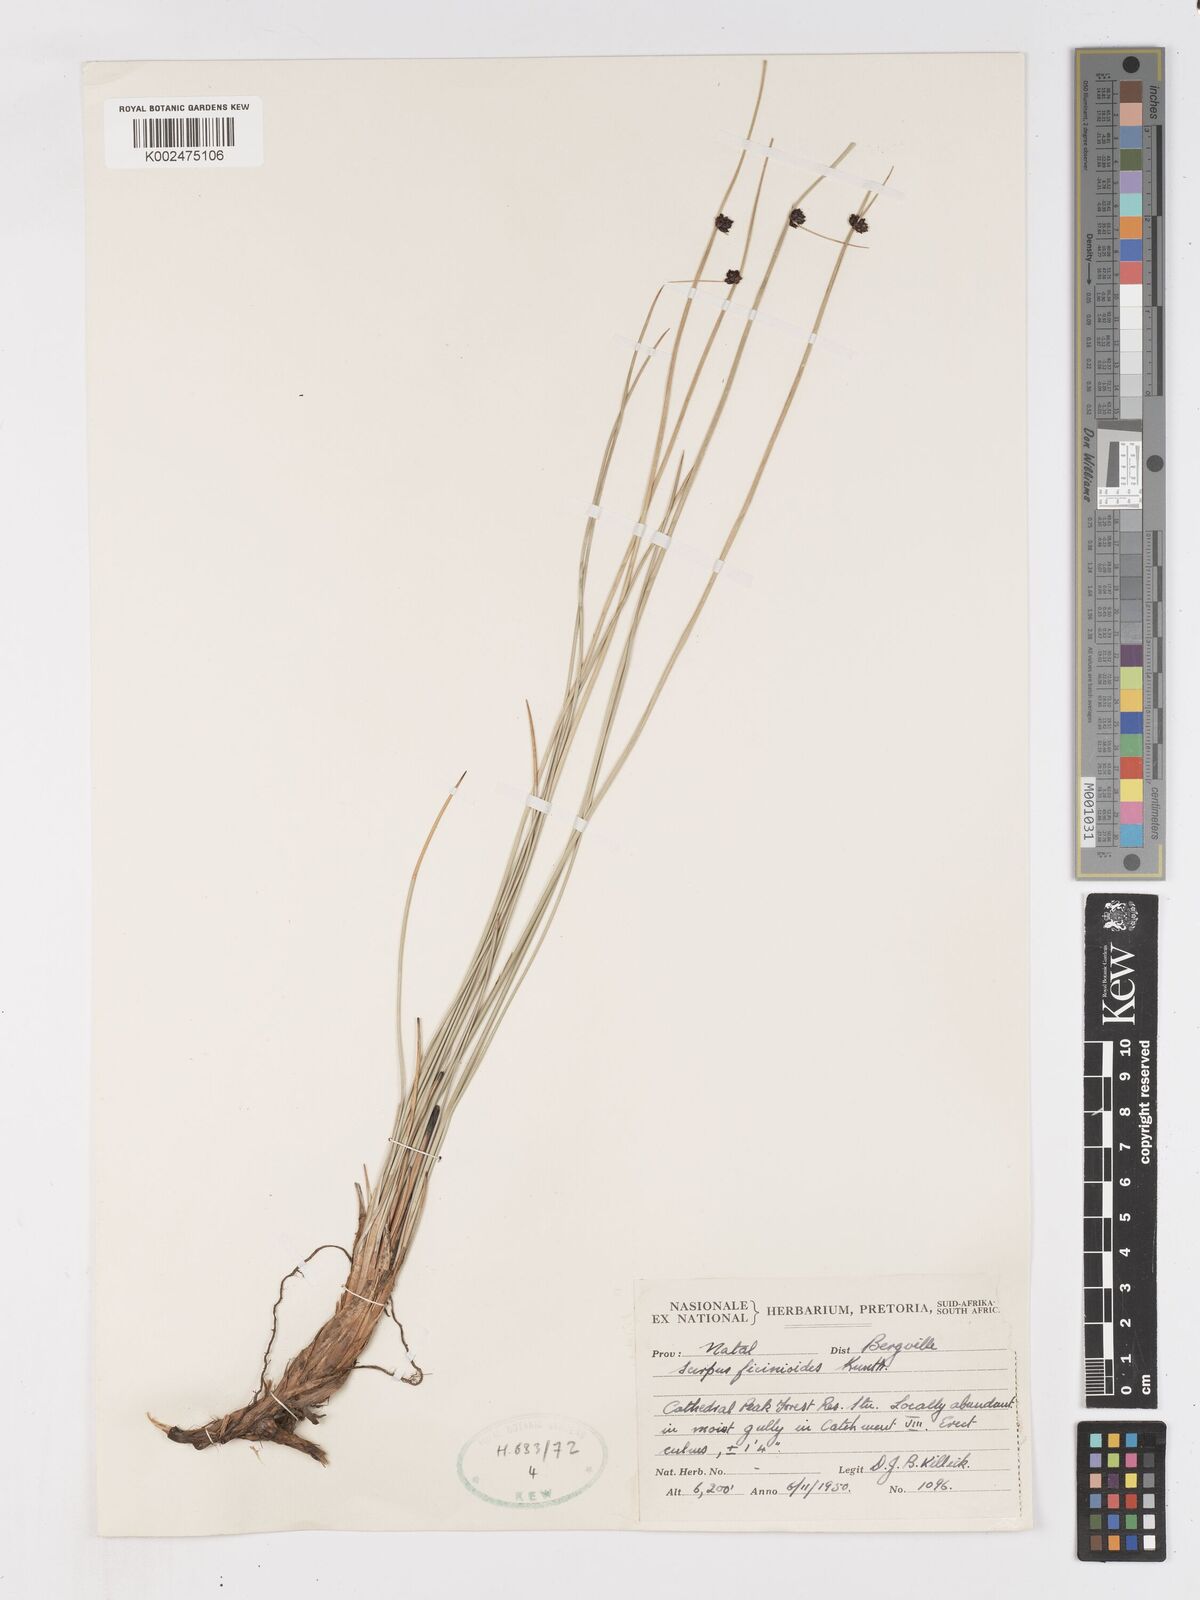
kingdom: Plantae
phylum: Tracheophyta
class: Liliopsida
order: Poales
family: Cyperaceae
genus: Ficinia
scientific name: Ficinia filiformis
